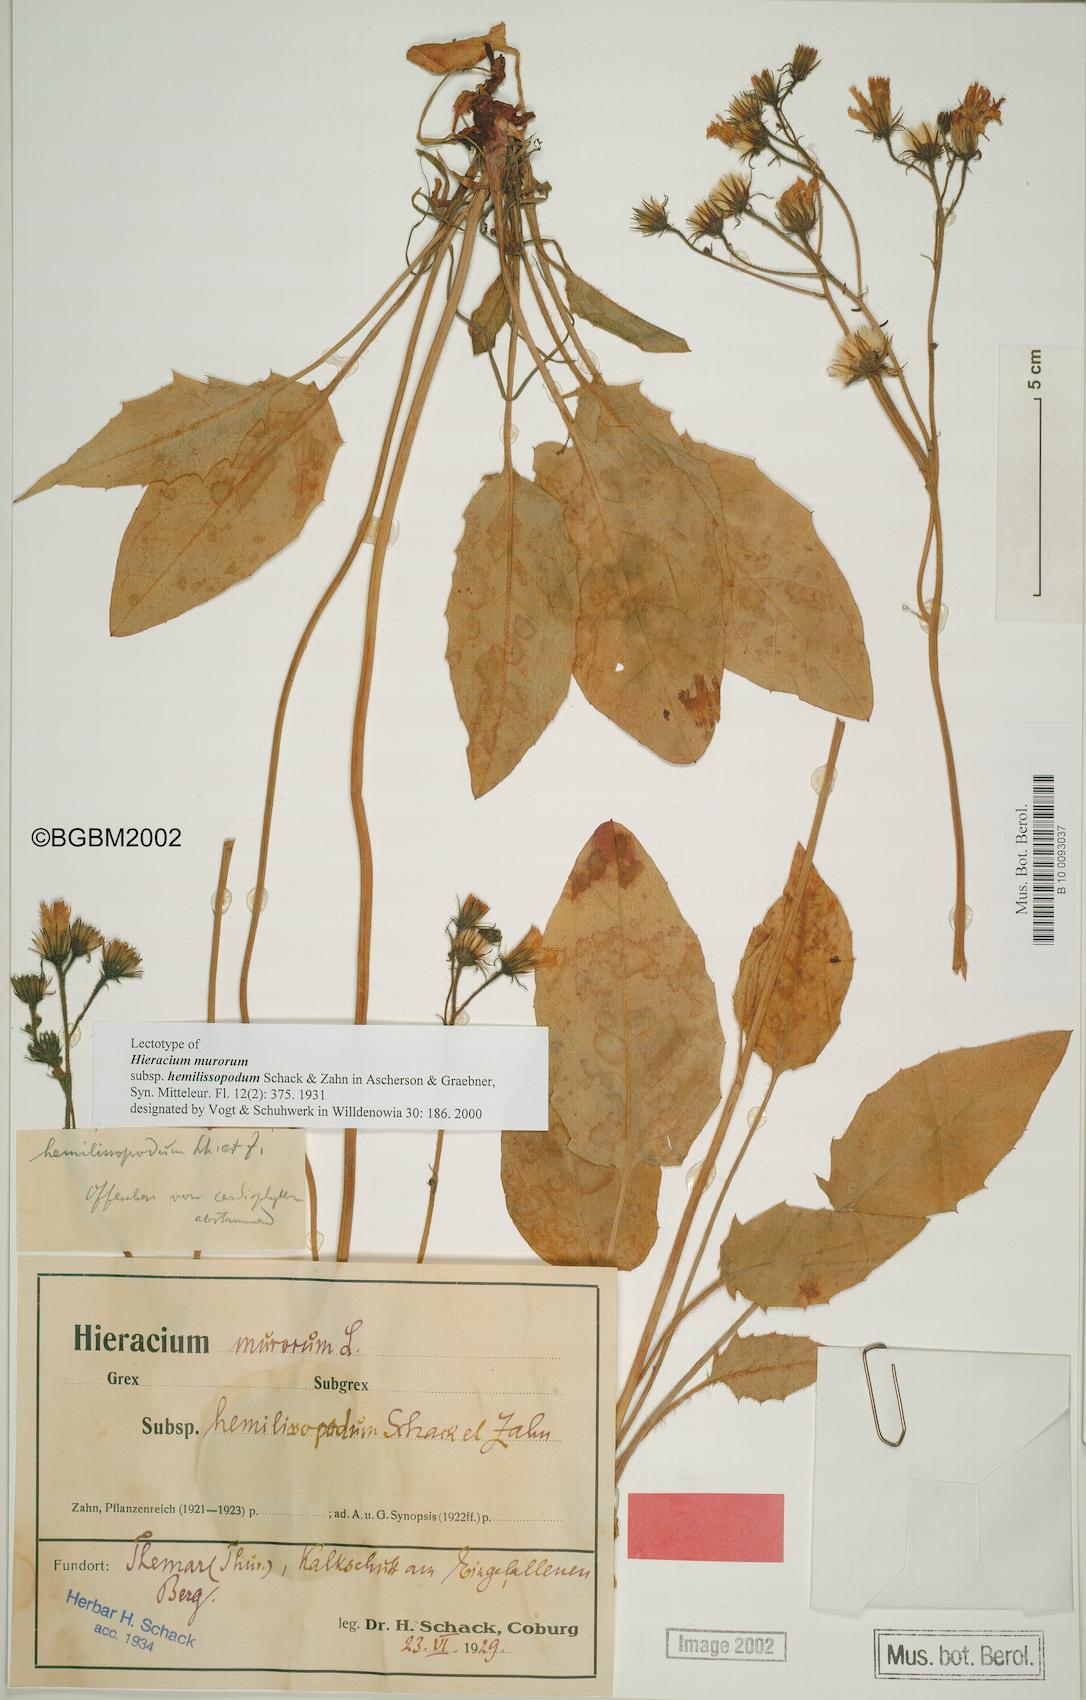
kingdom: Plantae
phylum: Tracheophyta
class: Magnoliopsida
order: Asterales
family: Asteraceae
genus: Hieracium
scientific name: Hieracium murorum
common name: Wall hawkweed
